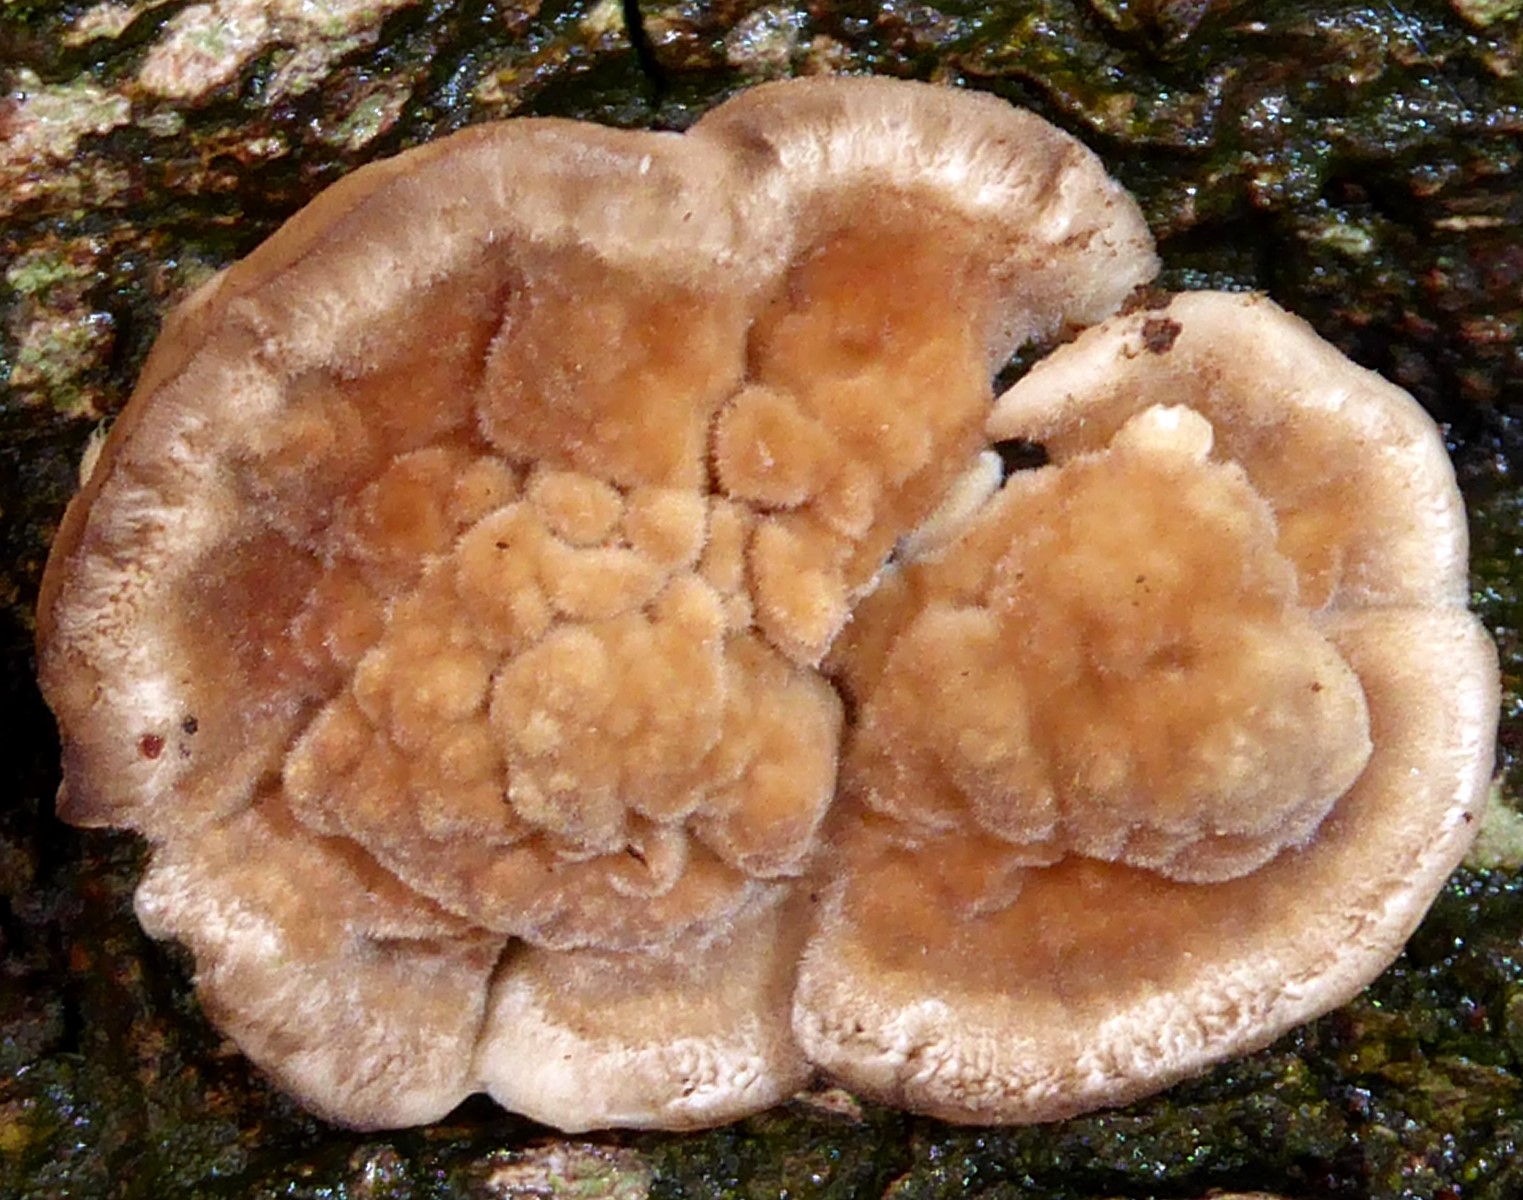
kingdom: Fungi
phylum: Basidiomycota
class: Agaricomycetes
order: Polyporales
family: Polyporaceae
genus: Trametes
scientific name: Trametes ochracea
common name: bæltet læderporesvamp
